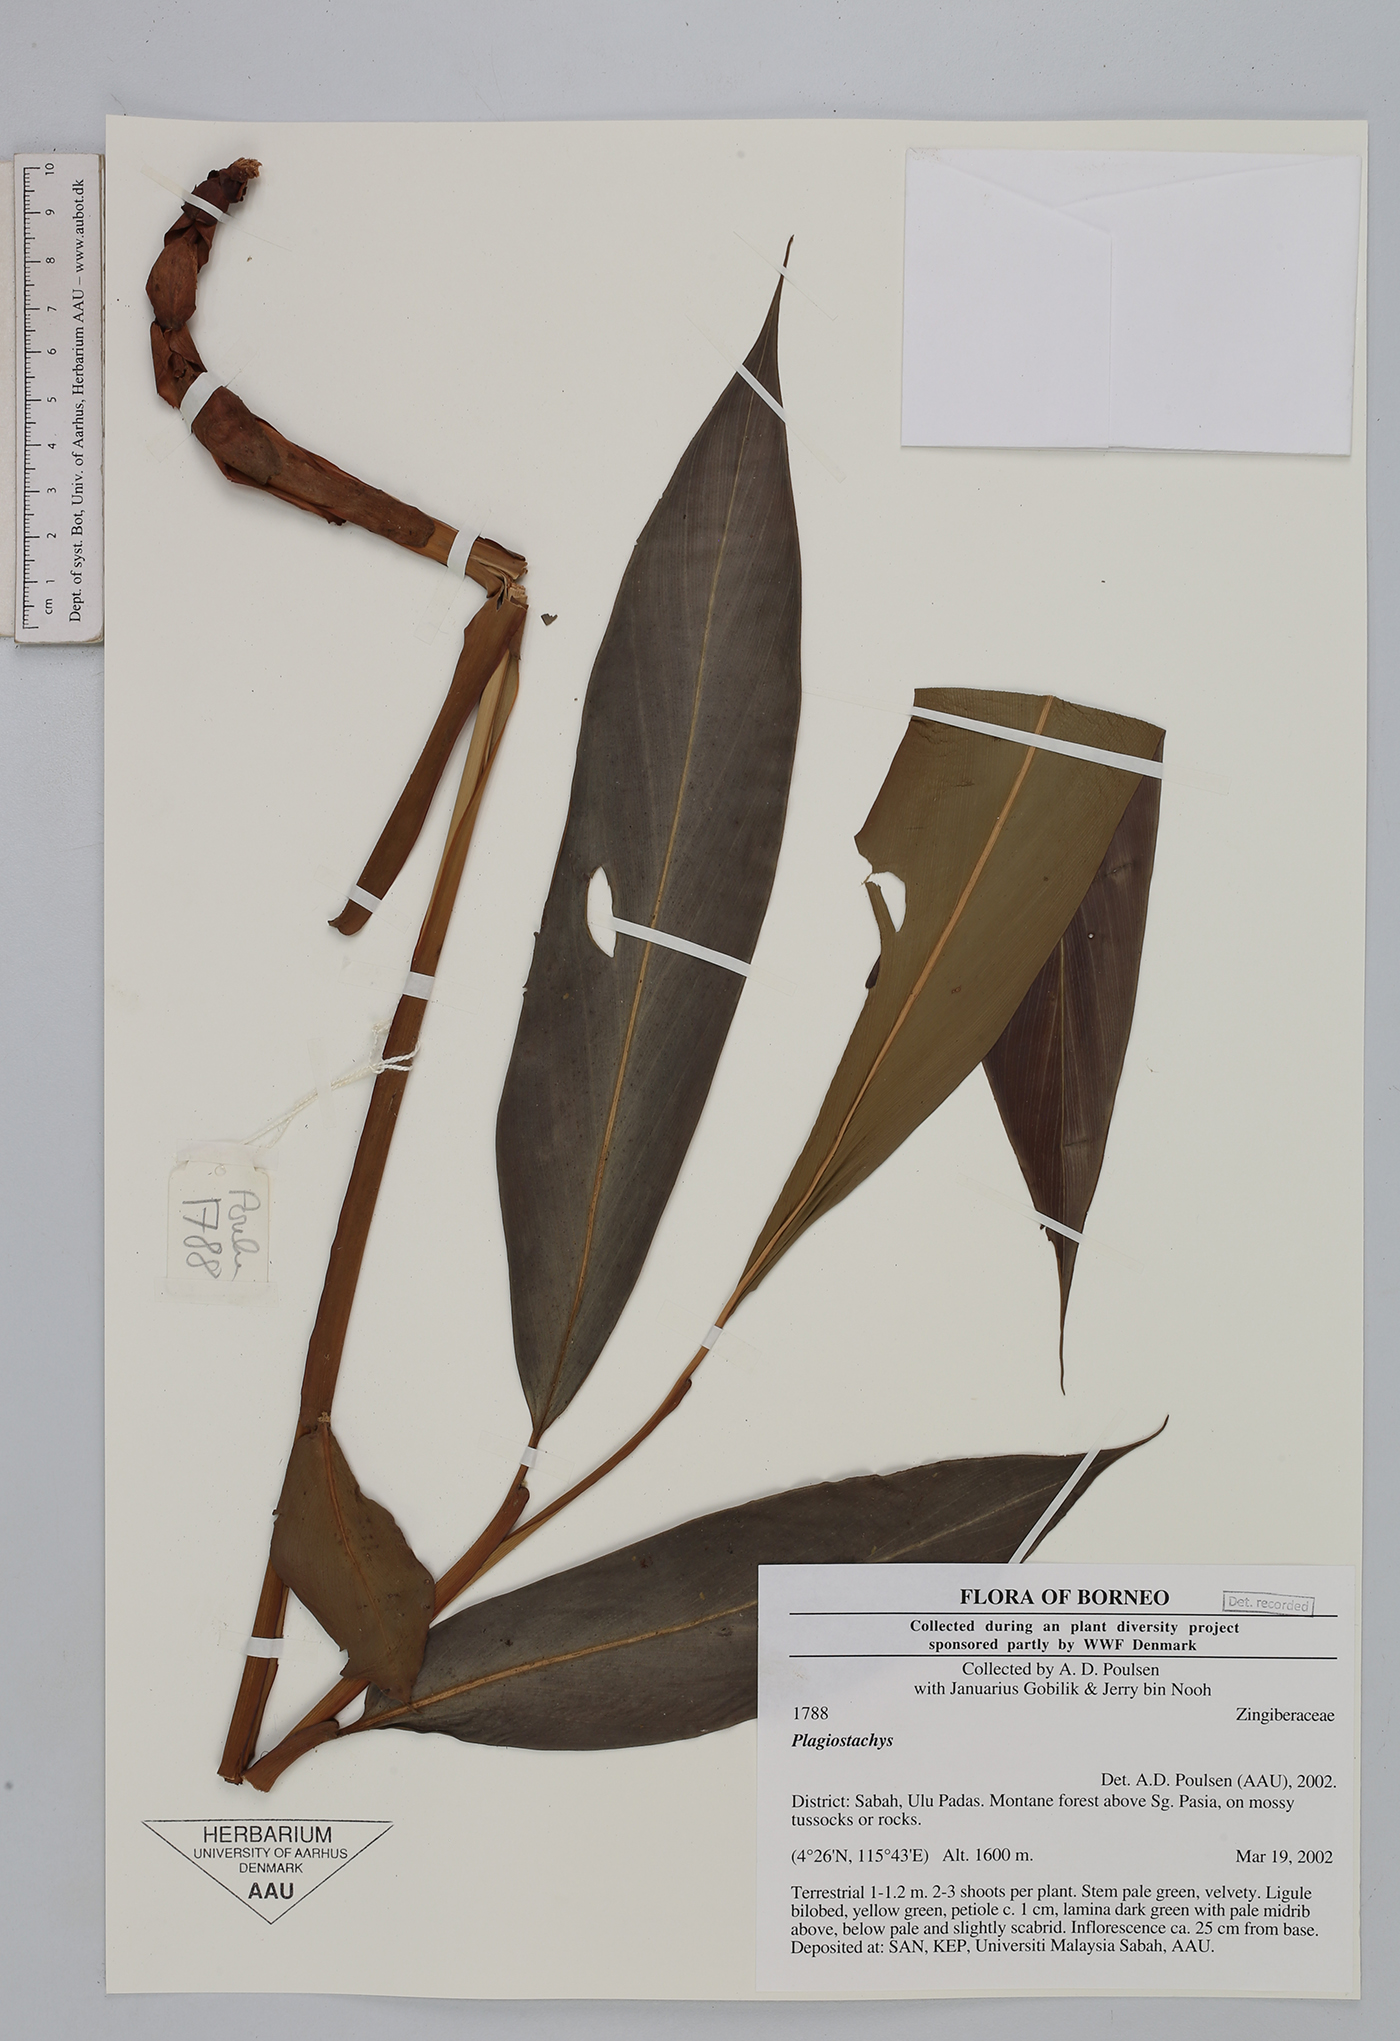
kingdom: Plantae
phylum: Tracheophyta
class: Liliopsida
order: Zingiberales
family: Zingiberaceae
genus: Plagiostachys
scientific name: Plagiostachys
